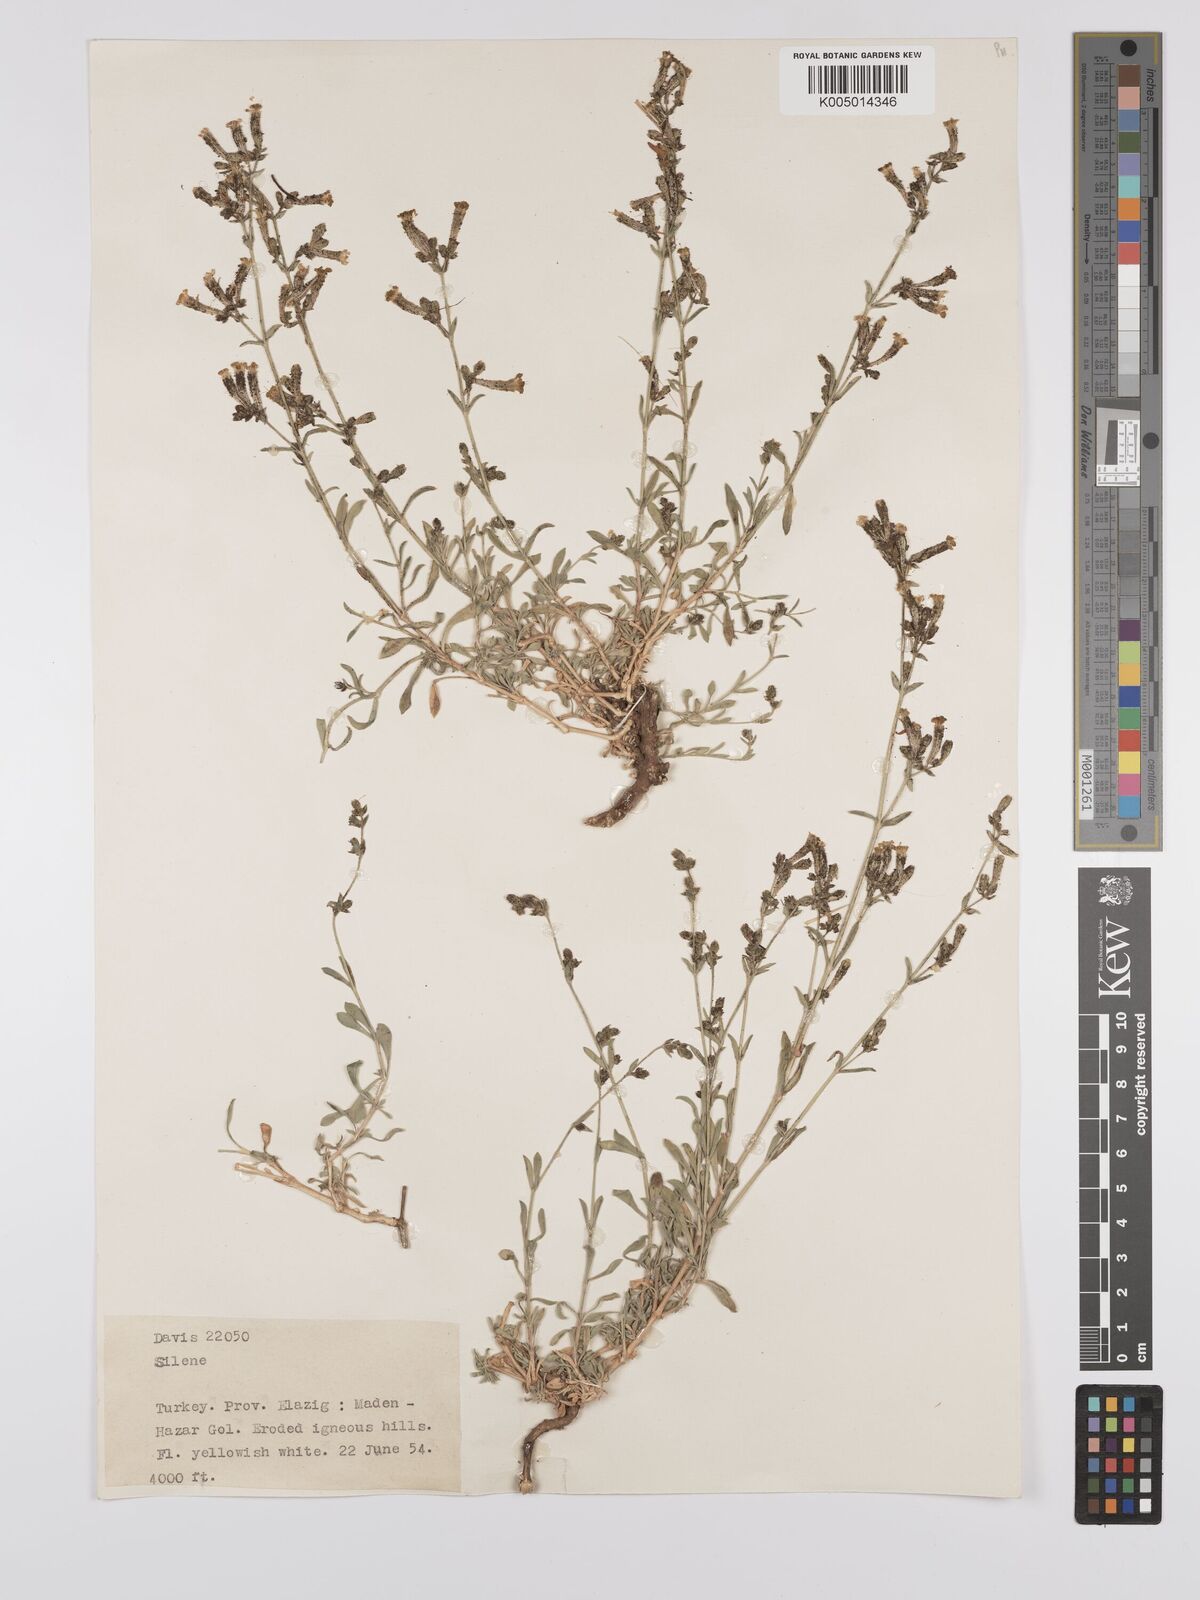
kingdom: Plantae
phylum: Tracheophyta
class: Magnoliopsida
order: Caryophyllales
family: Caryophyllaceae
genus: Silene
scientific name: Silene
